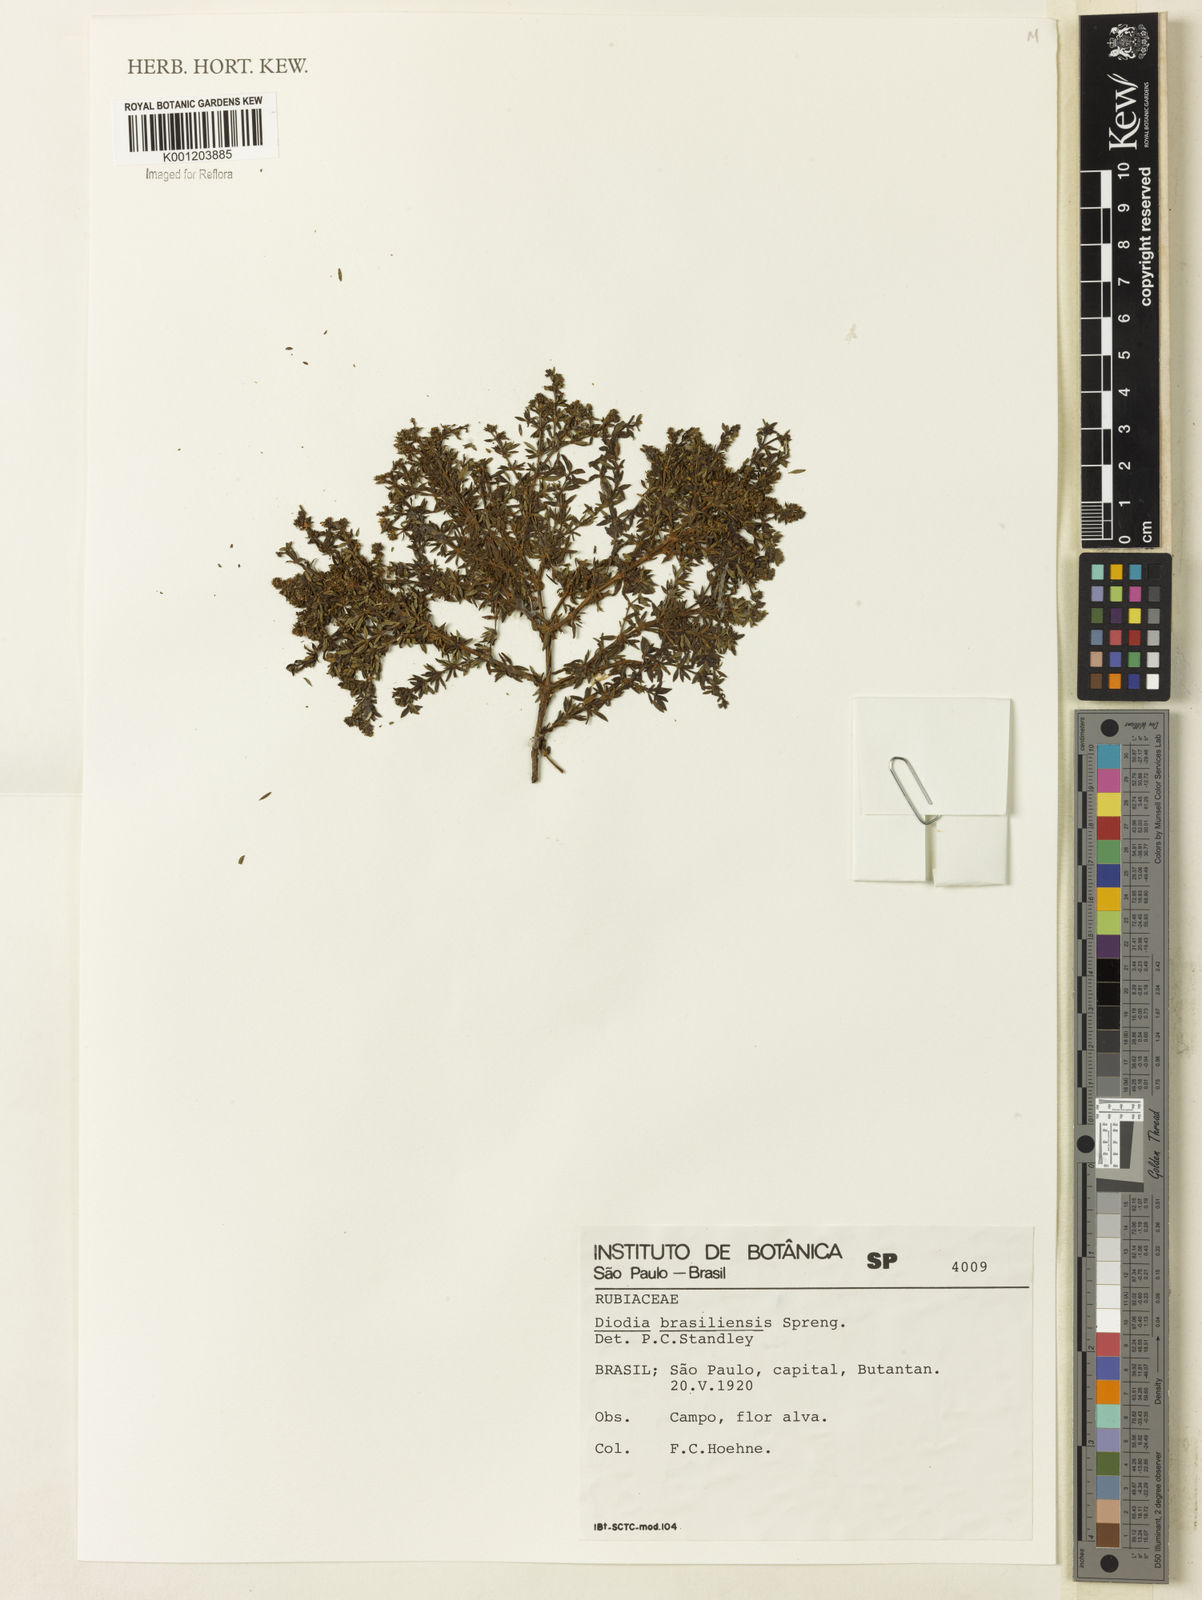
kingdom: Plantae
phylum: Tracheophyta
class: Magnoliopsida
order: Gentianales
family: Rubiaceae
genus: Galianthe
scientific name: Galianthe brasiliensis
